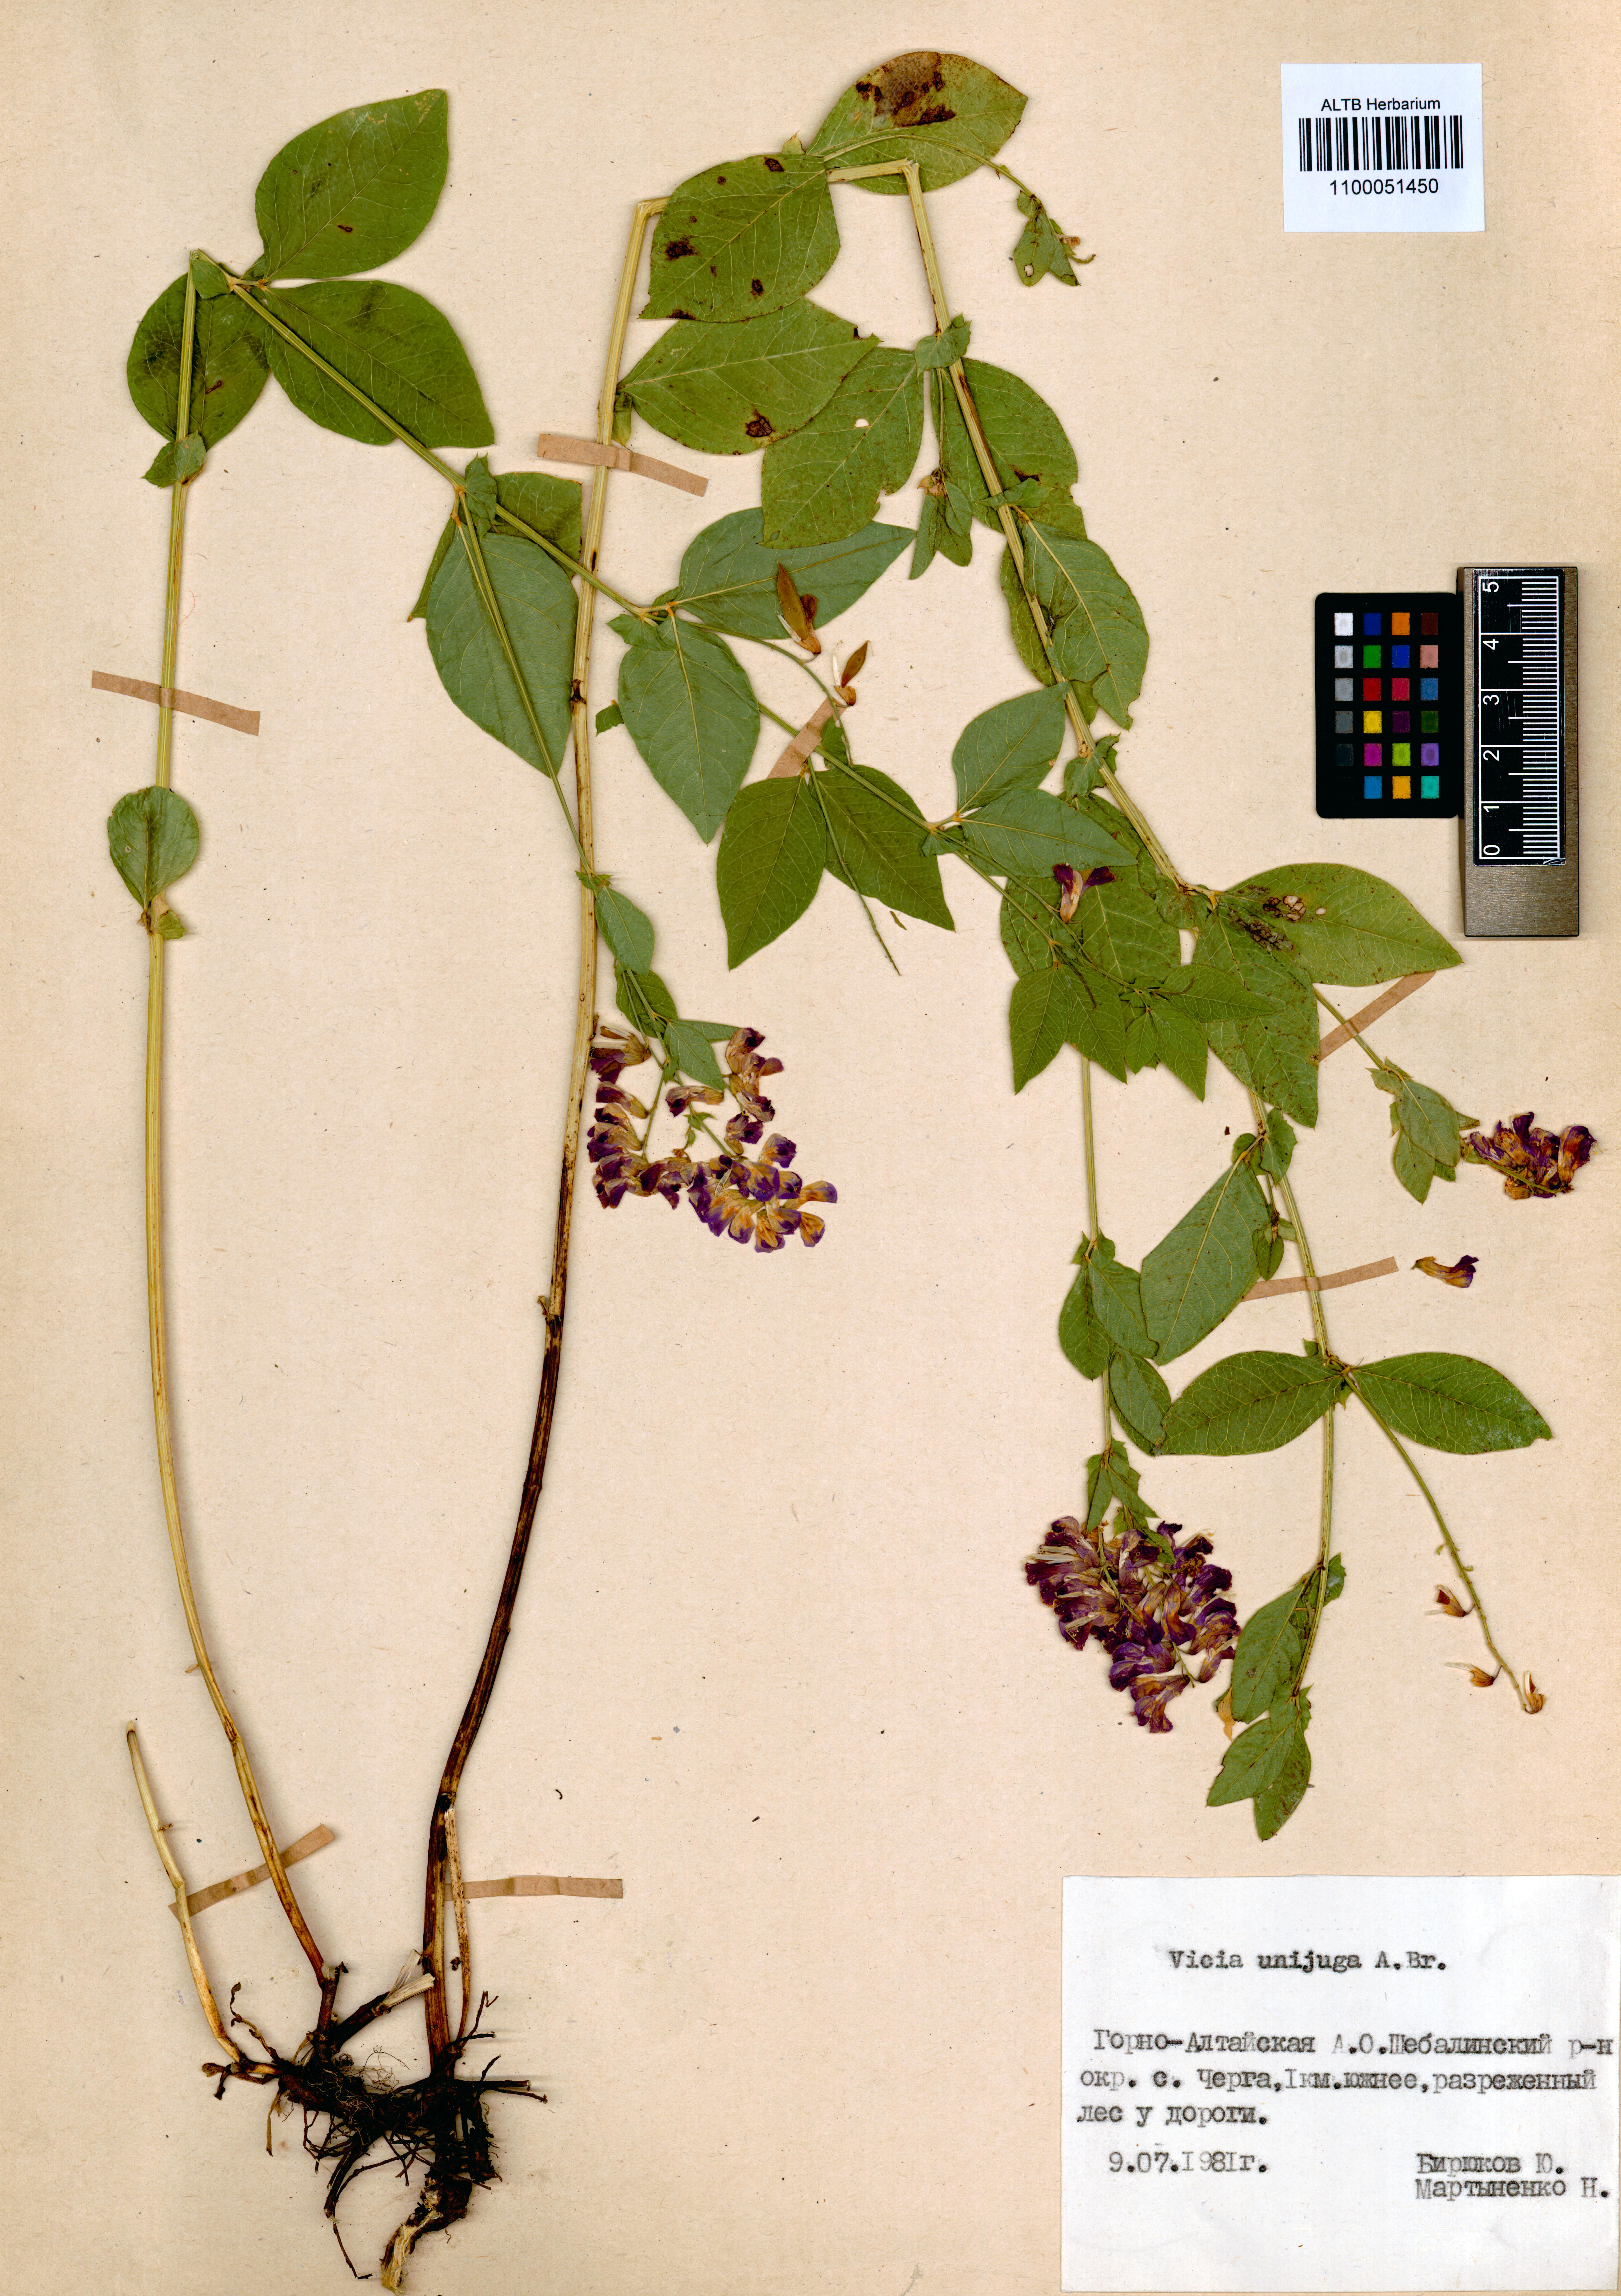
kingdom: Plantae
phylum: Tracheophyta
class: Magnoliopsida
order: Fabales
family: Fabaceae
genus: Vicia
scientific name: Vicia unijuga
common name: Two-leaf vetch
